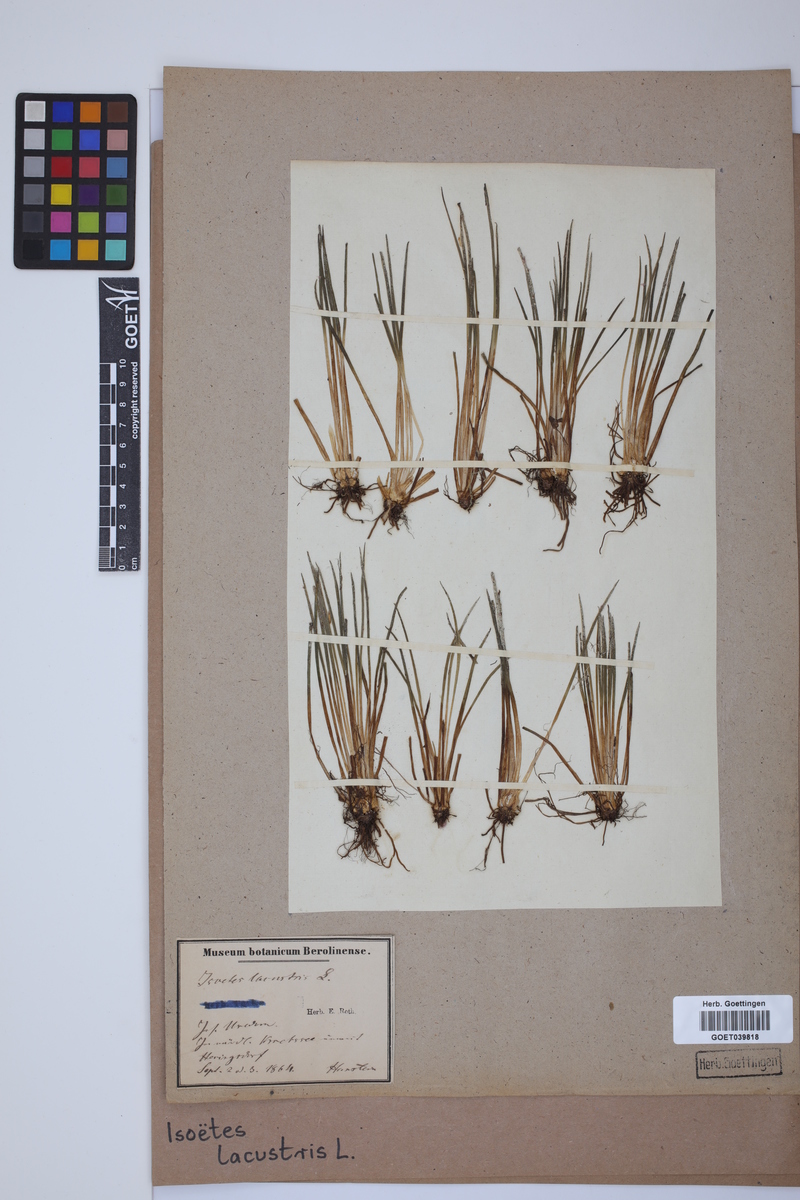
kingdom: Plantae
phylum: Tracheophyta
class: Lycopodiopsida
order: Isoetales
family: Isoetaceae
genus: Isoetes
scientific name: Isoetes lacustris
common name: Common quillwort
